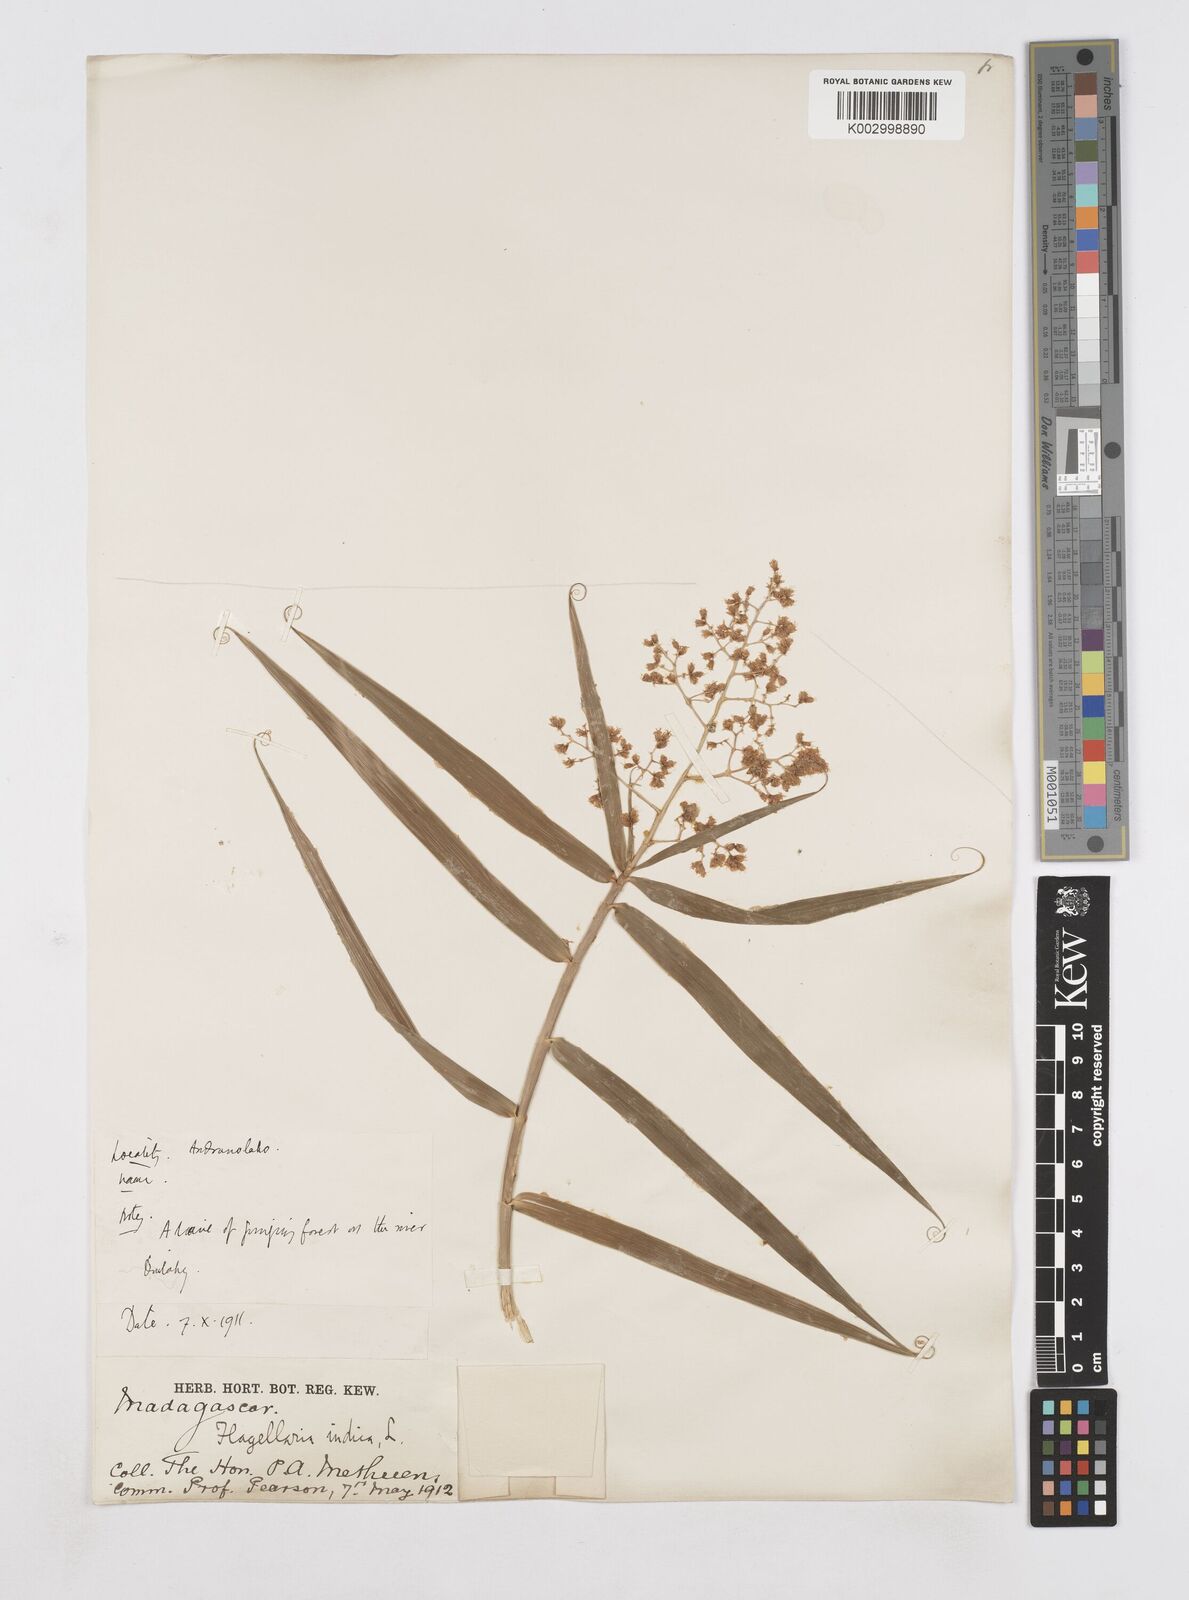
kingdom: Plantae
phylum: Tracheophyta
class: Liliopsida
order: Poales
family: Flagellariaceae
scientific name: Flagellariaceae
